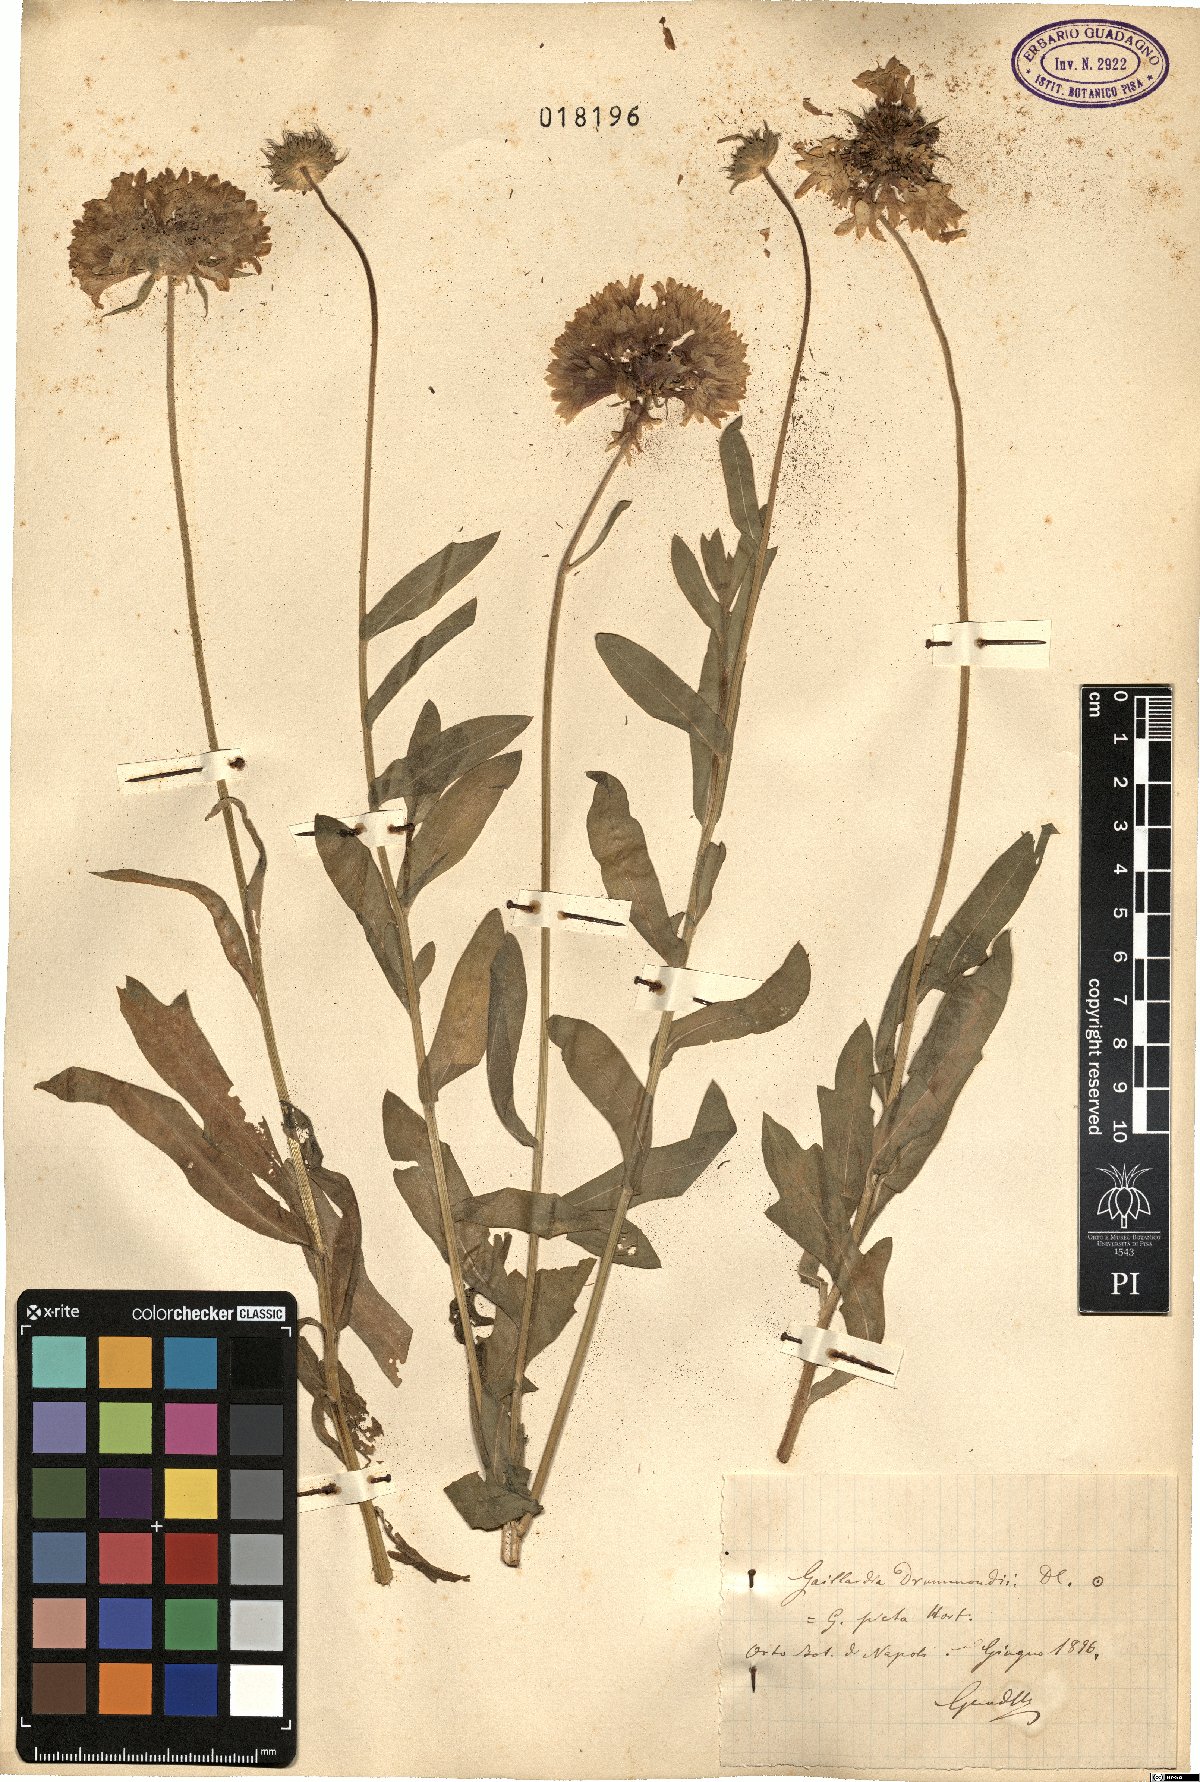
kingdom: Plantae
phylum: Tracheophyta
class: Magnoliopsida
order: Asterales
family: Asteraceae
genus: Gaillardia
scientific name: Gaillardia pulchella
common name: Firewheel
